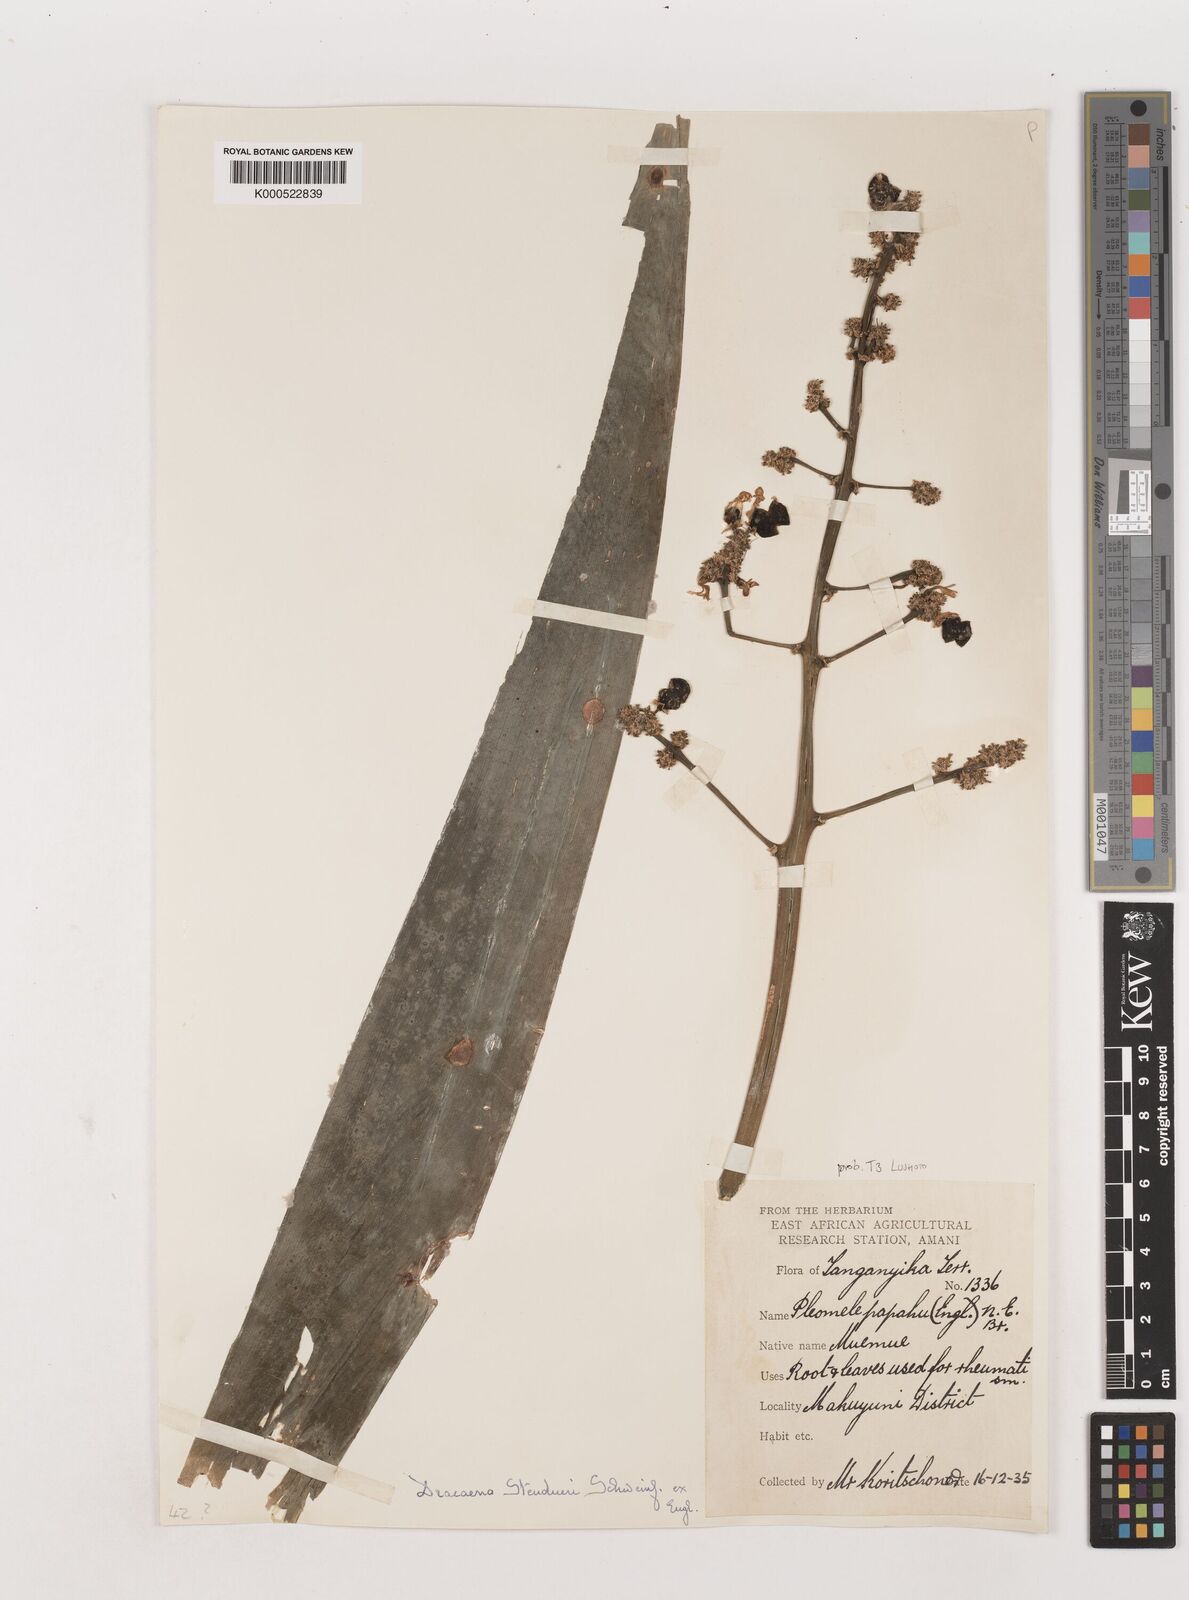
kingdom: Plantae
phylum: Tracheophyta
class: Liliopsida
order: Asparagales
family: Asparagaceae
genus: Dracaena
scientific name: Dracaena steudneri
